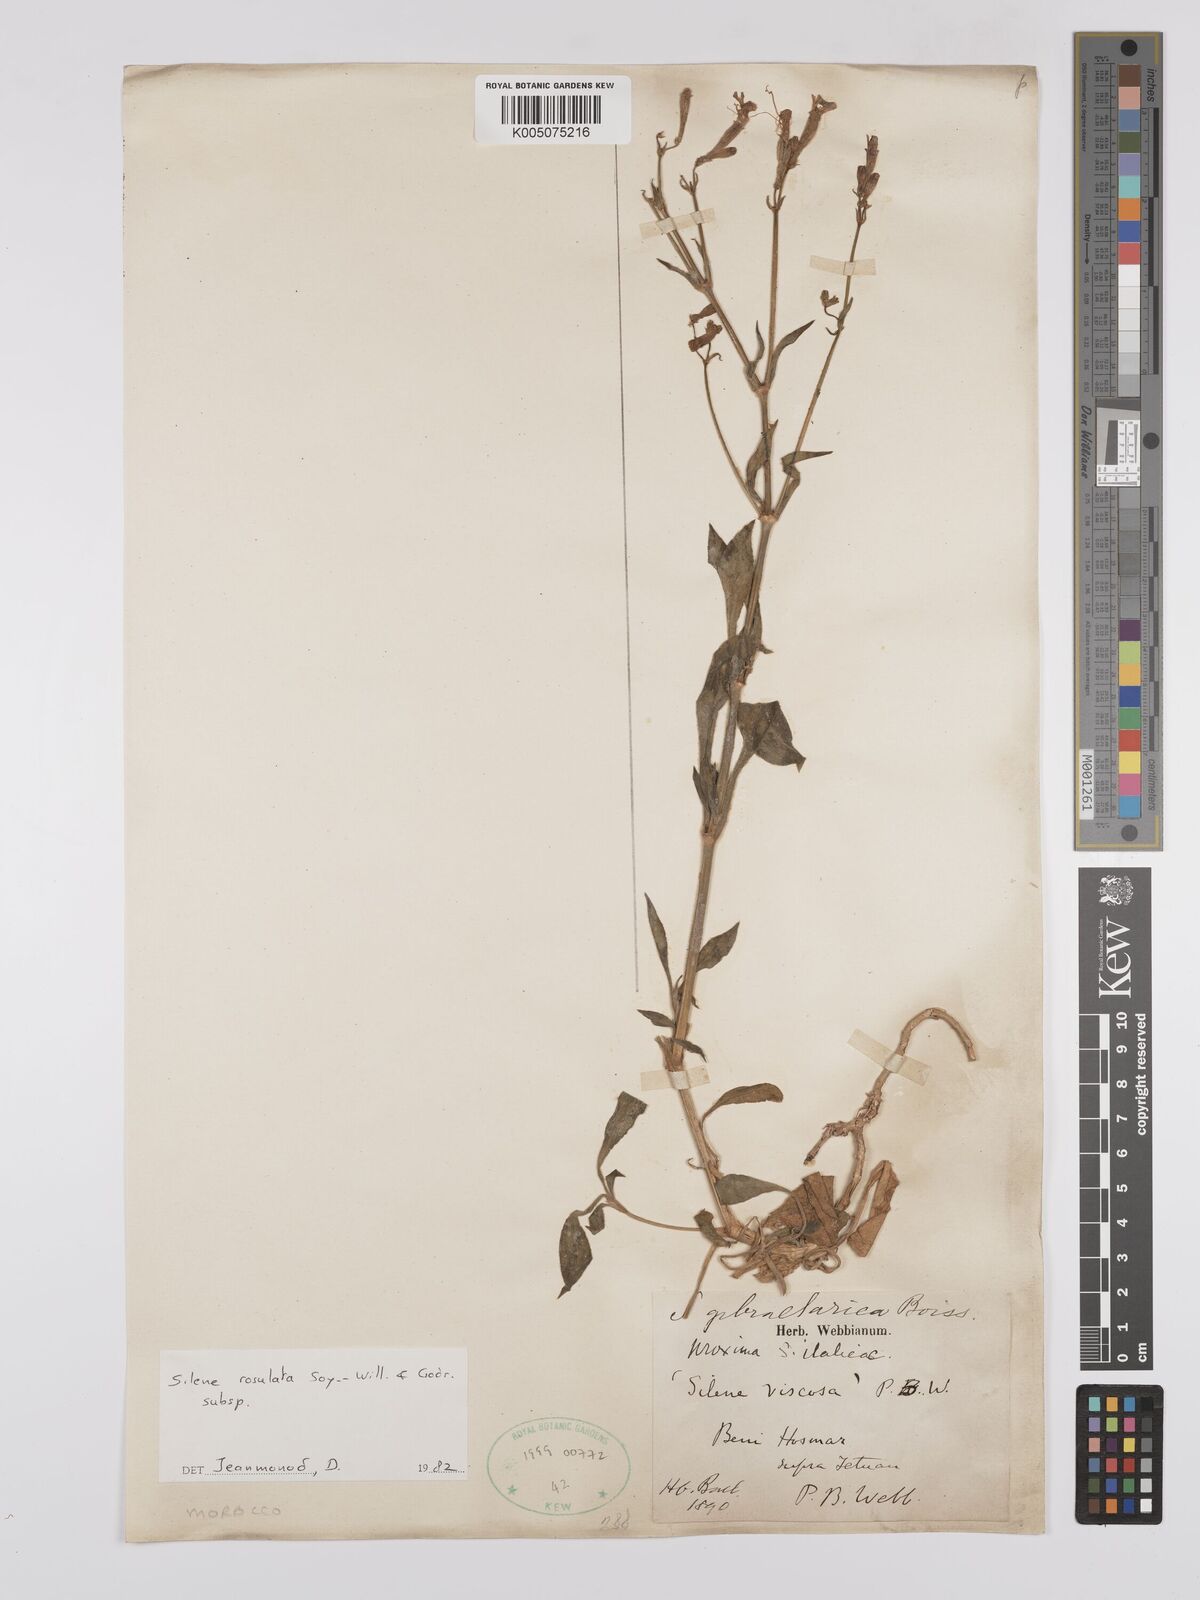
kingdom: Plantae
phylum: Tracheophyta
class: Magnoliopsida
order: Caryophyllales
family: Caryophyllaceae
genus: Silene
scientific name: Silene rosulata
